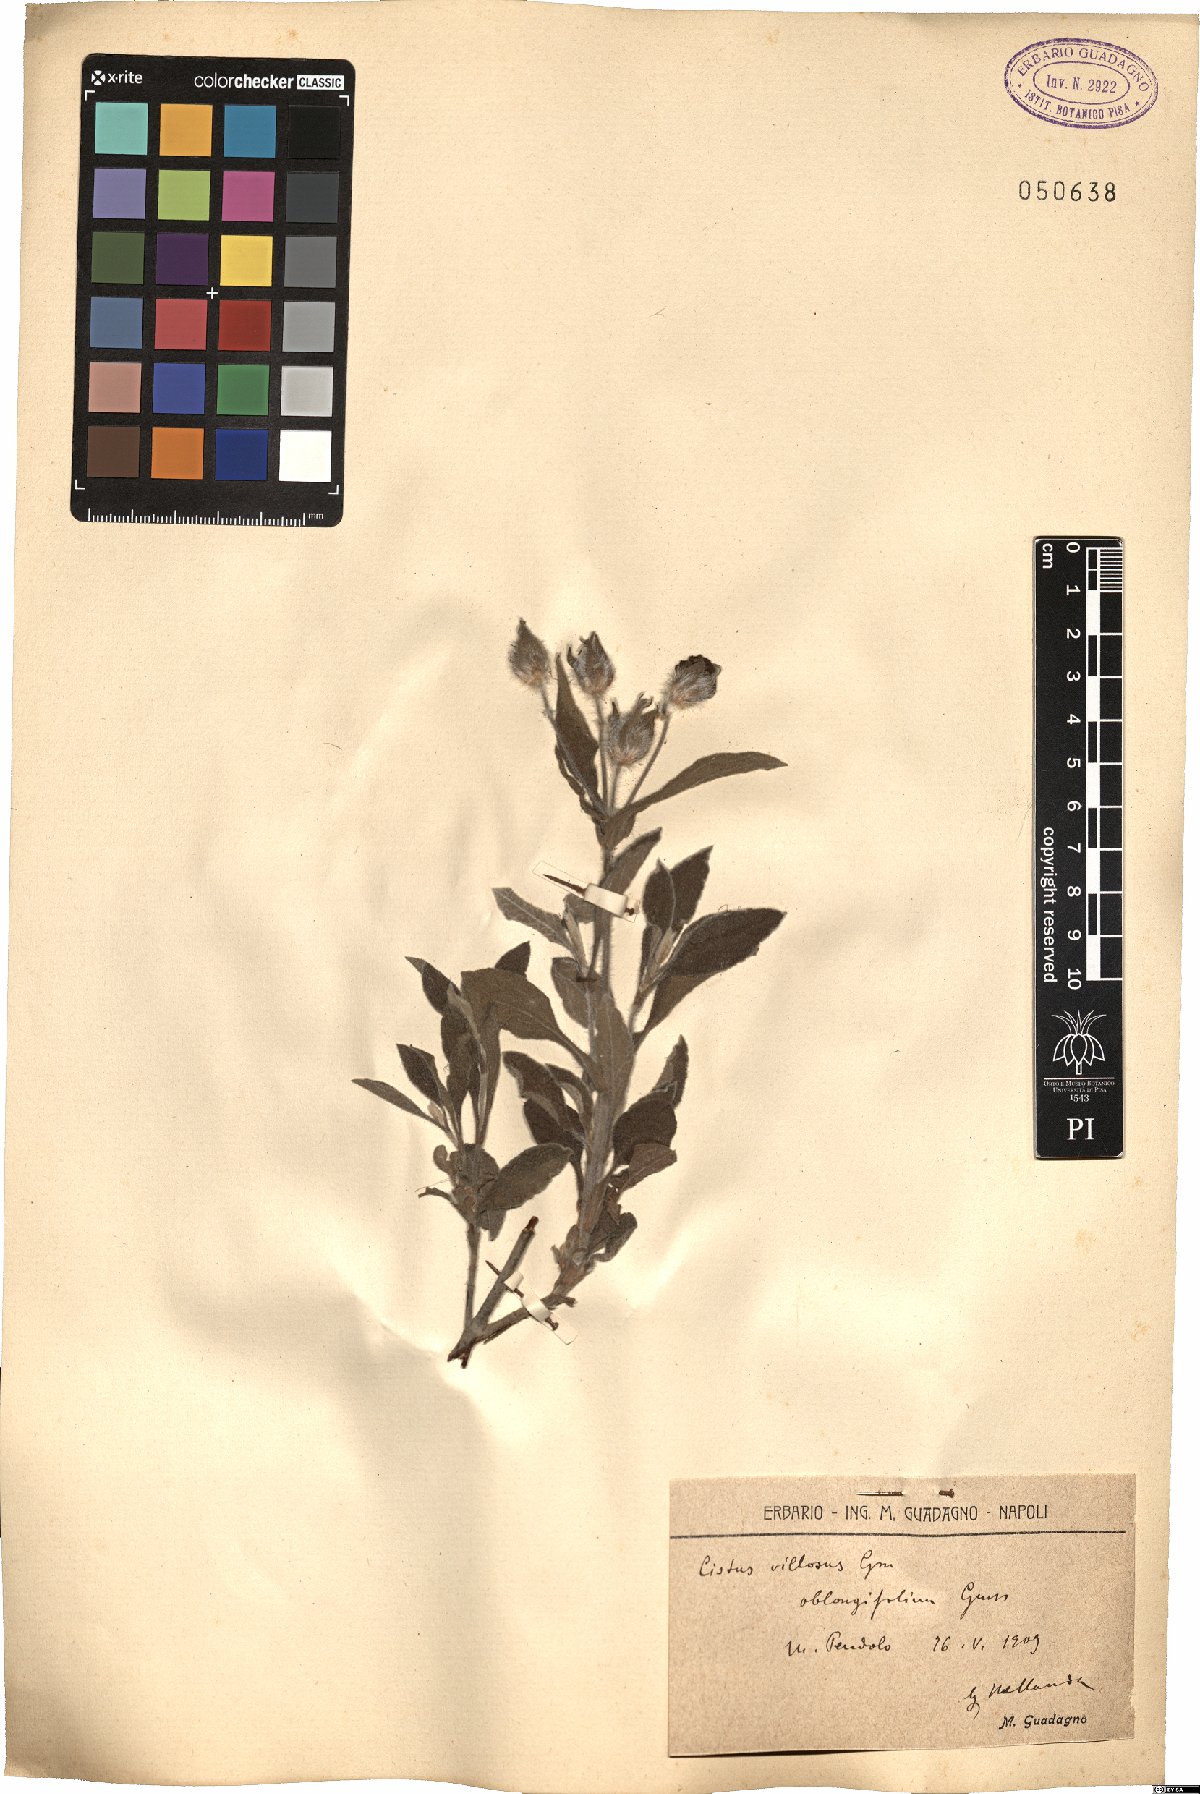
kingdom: Plantae
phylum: Tracheophyta
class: Magnoliopsida
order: Malvales
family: Cistaceae
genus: Cistus
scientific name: Cistus creticus
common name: Cretan rockrose
